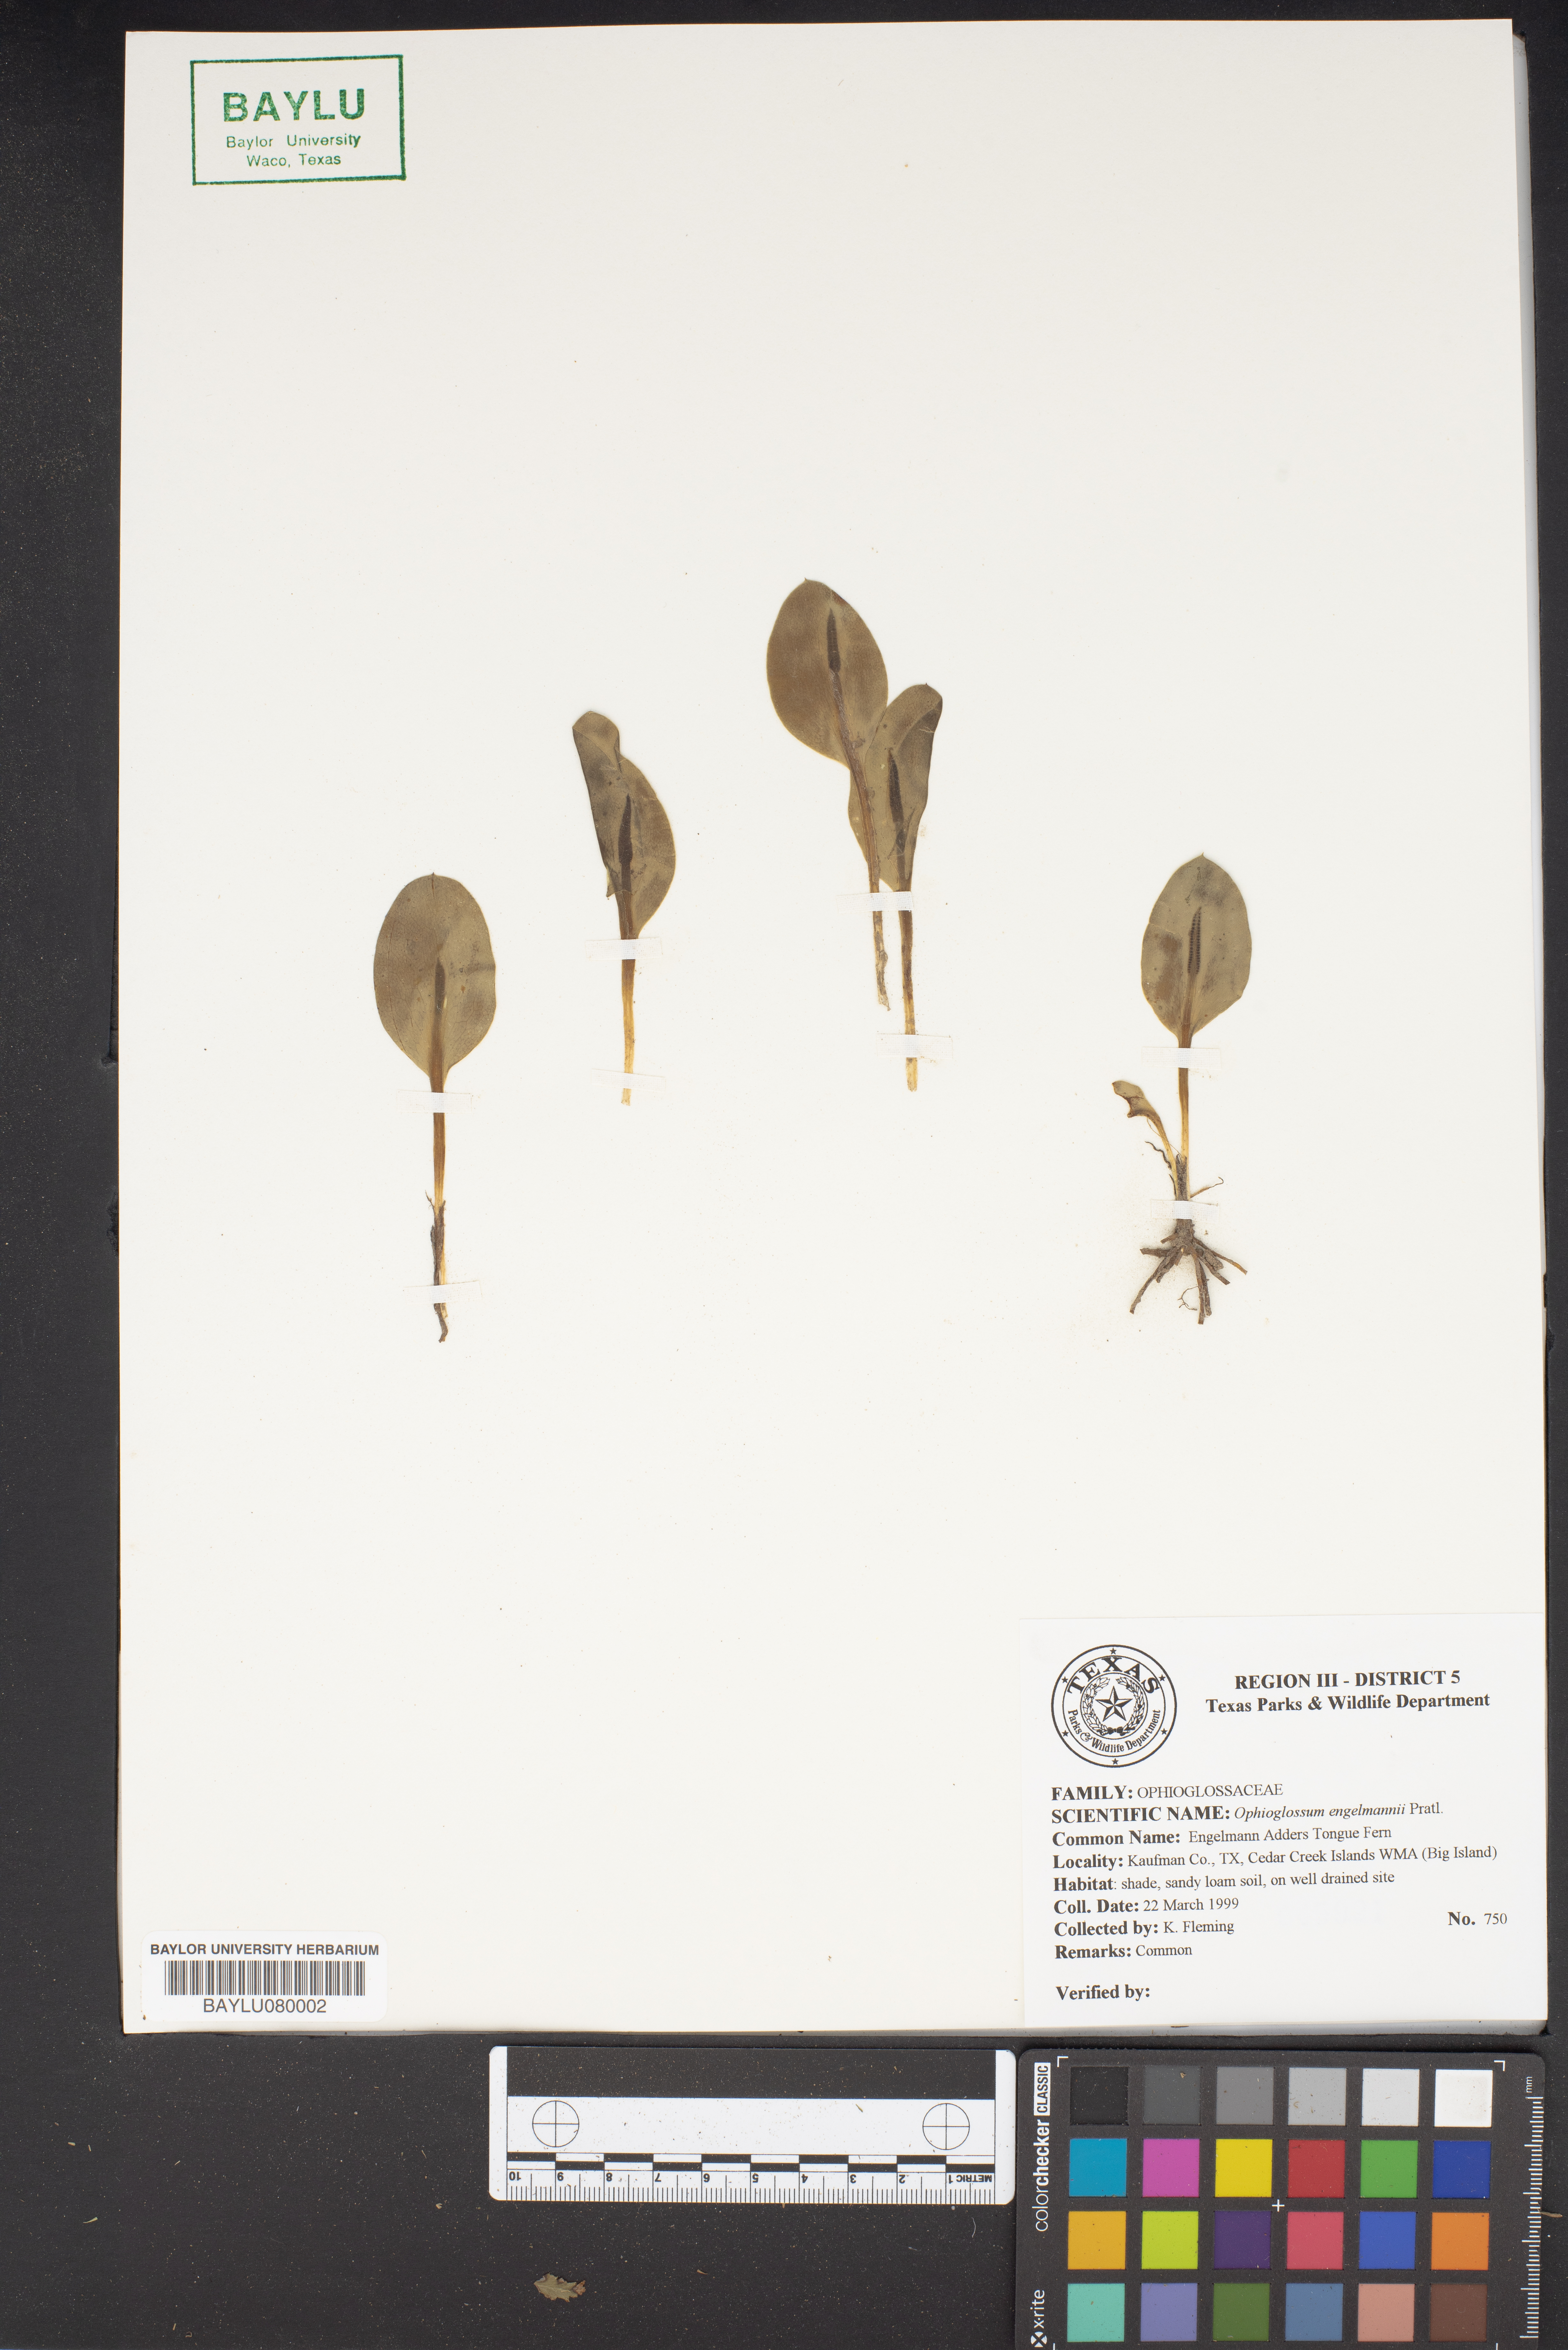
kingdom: Plantae
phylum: Tracheophyta
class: Polypodiopsida
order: Ophioglossales
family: Ophioglossaceae
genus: Ophioglossum
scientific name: Ophioglossum engelmannii
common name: Limestone adder's-tongue
